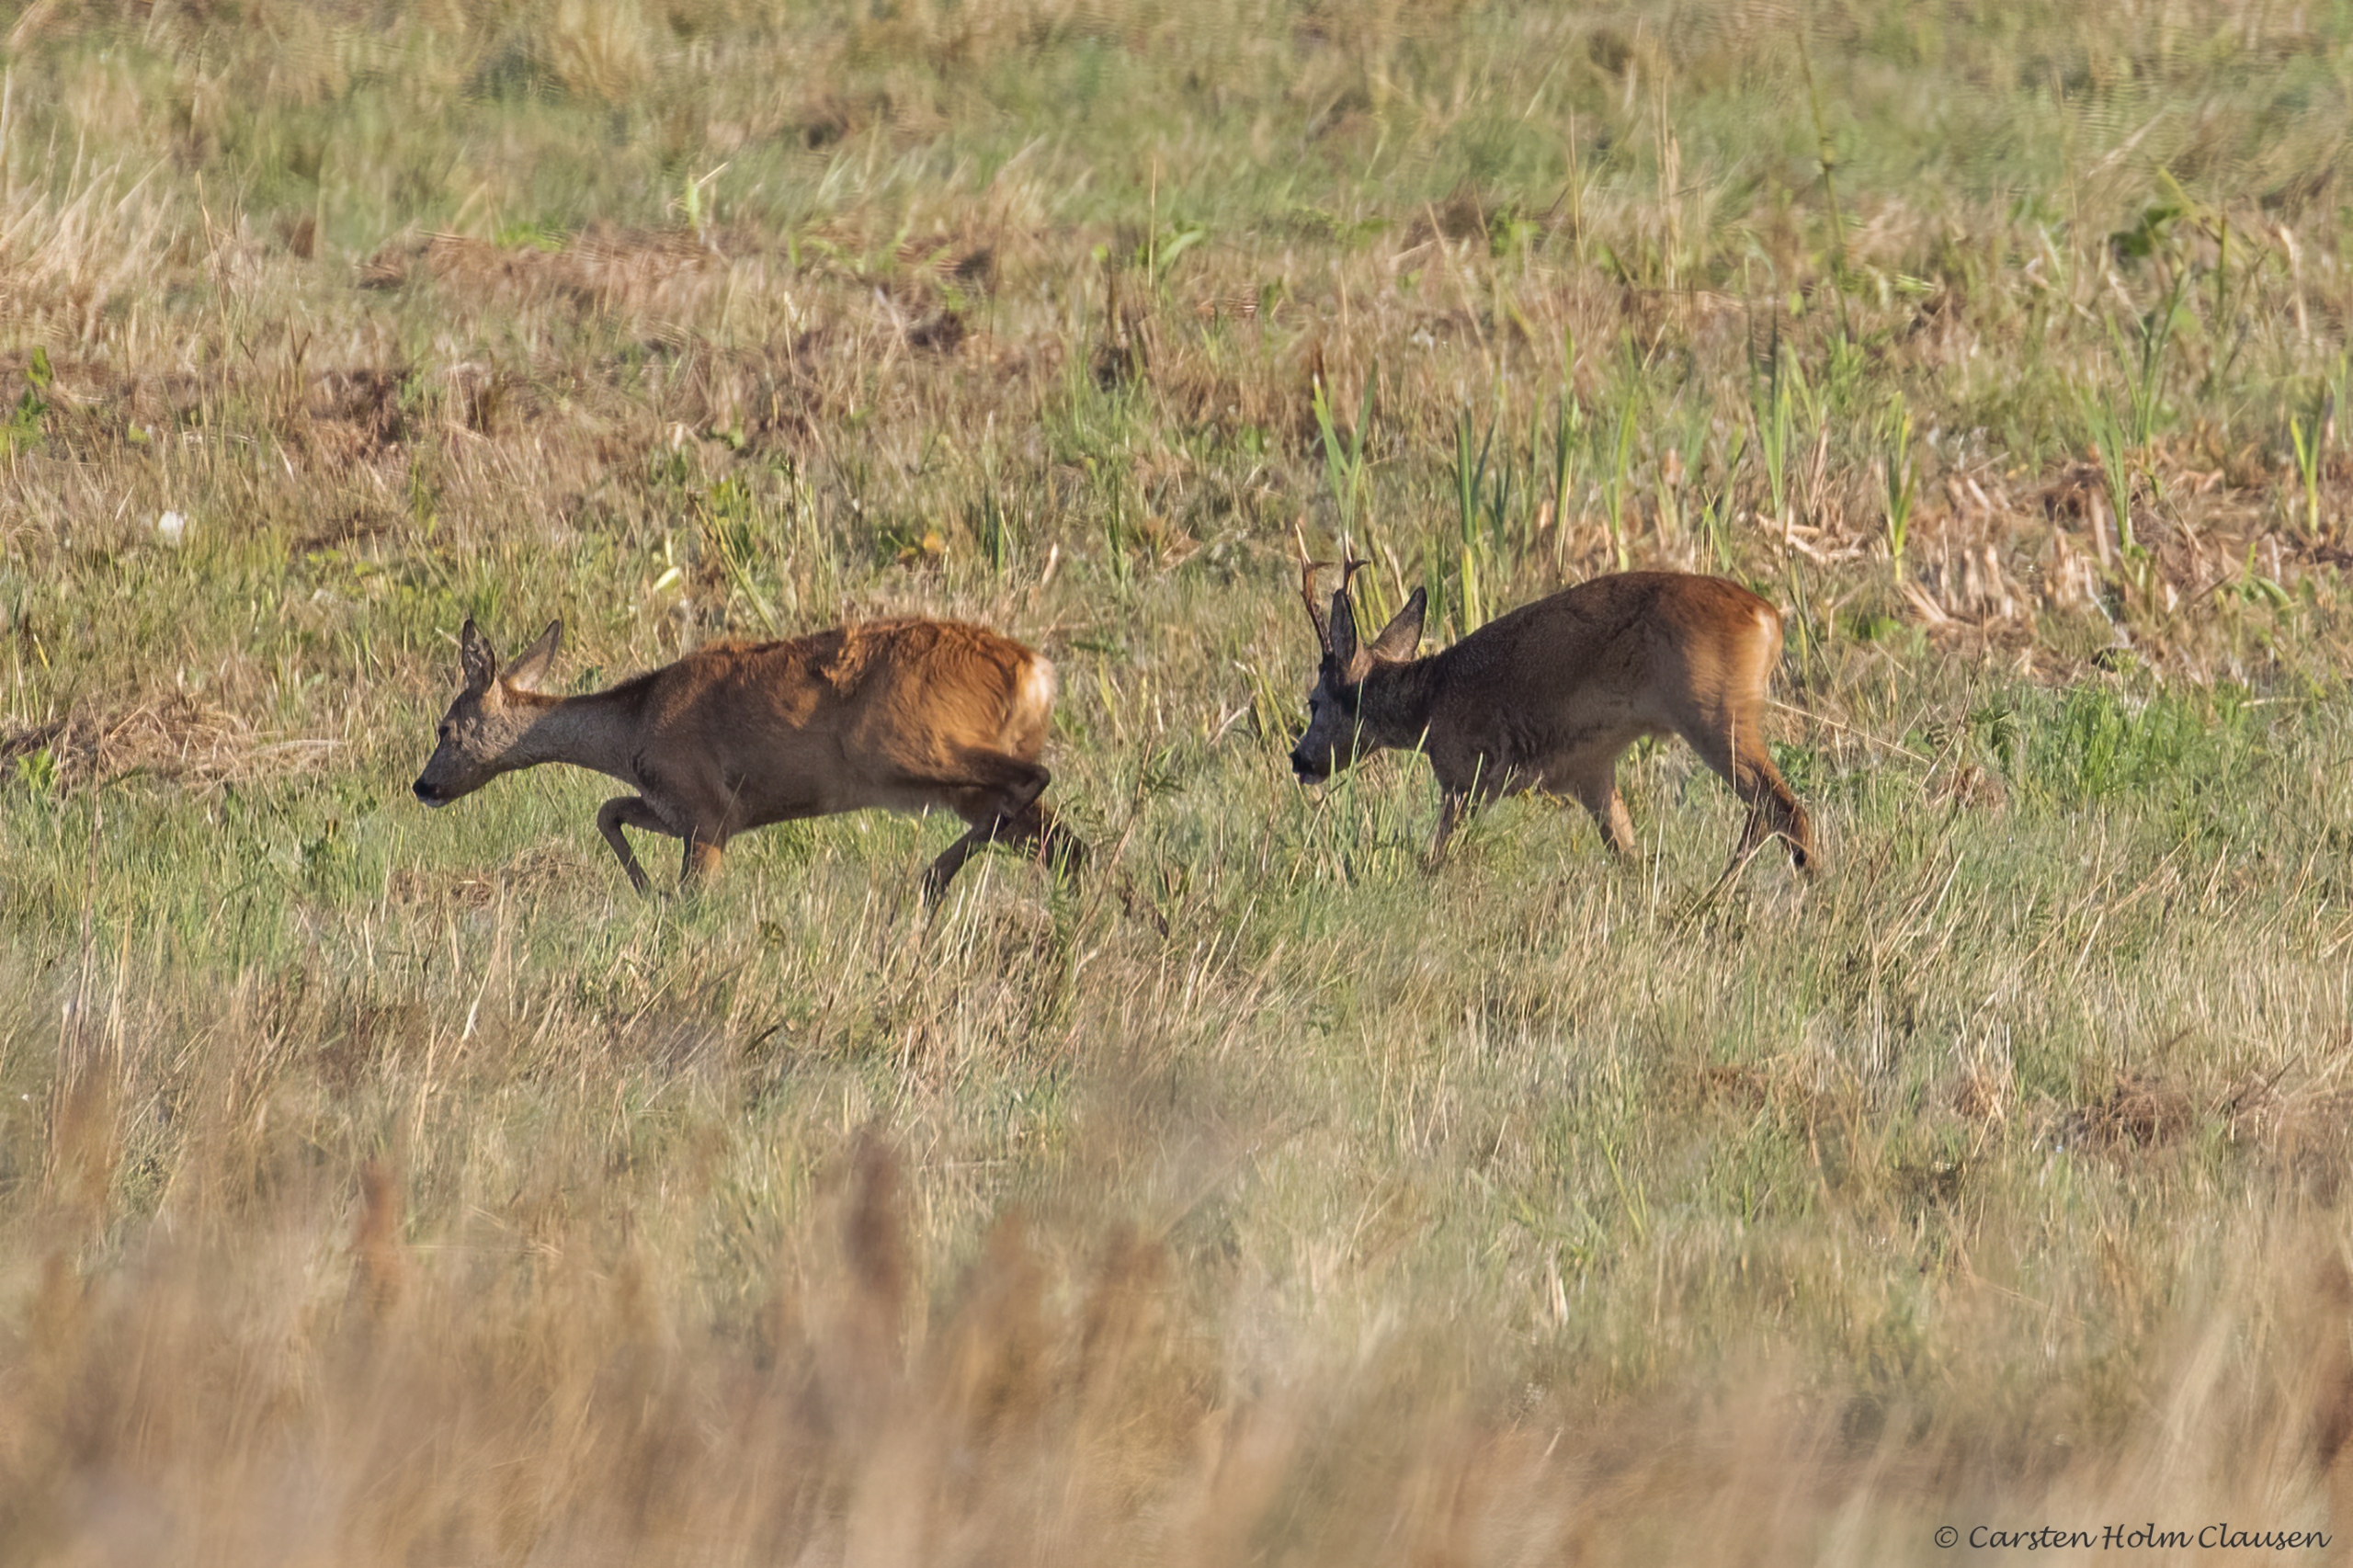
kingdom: Animalia
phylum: Chordata
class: Mammalia
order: Artiodactyla
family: Cervidae
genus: Capreolus
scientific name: Capreolus capreolus
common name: Rådyr
